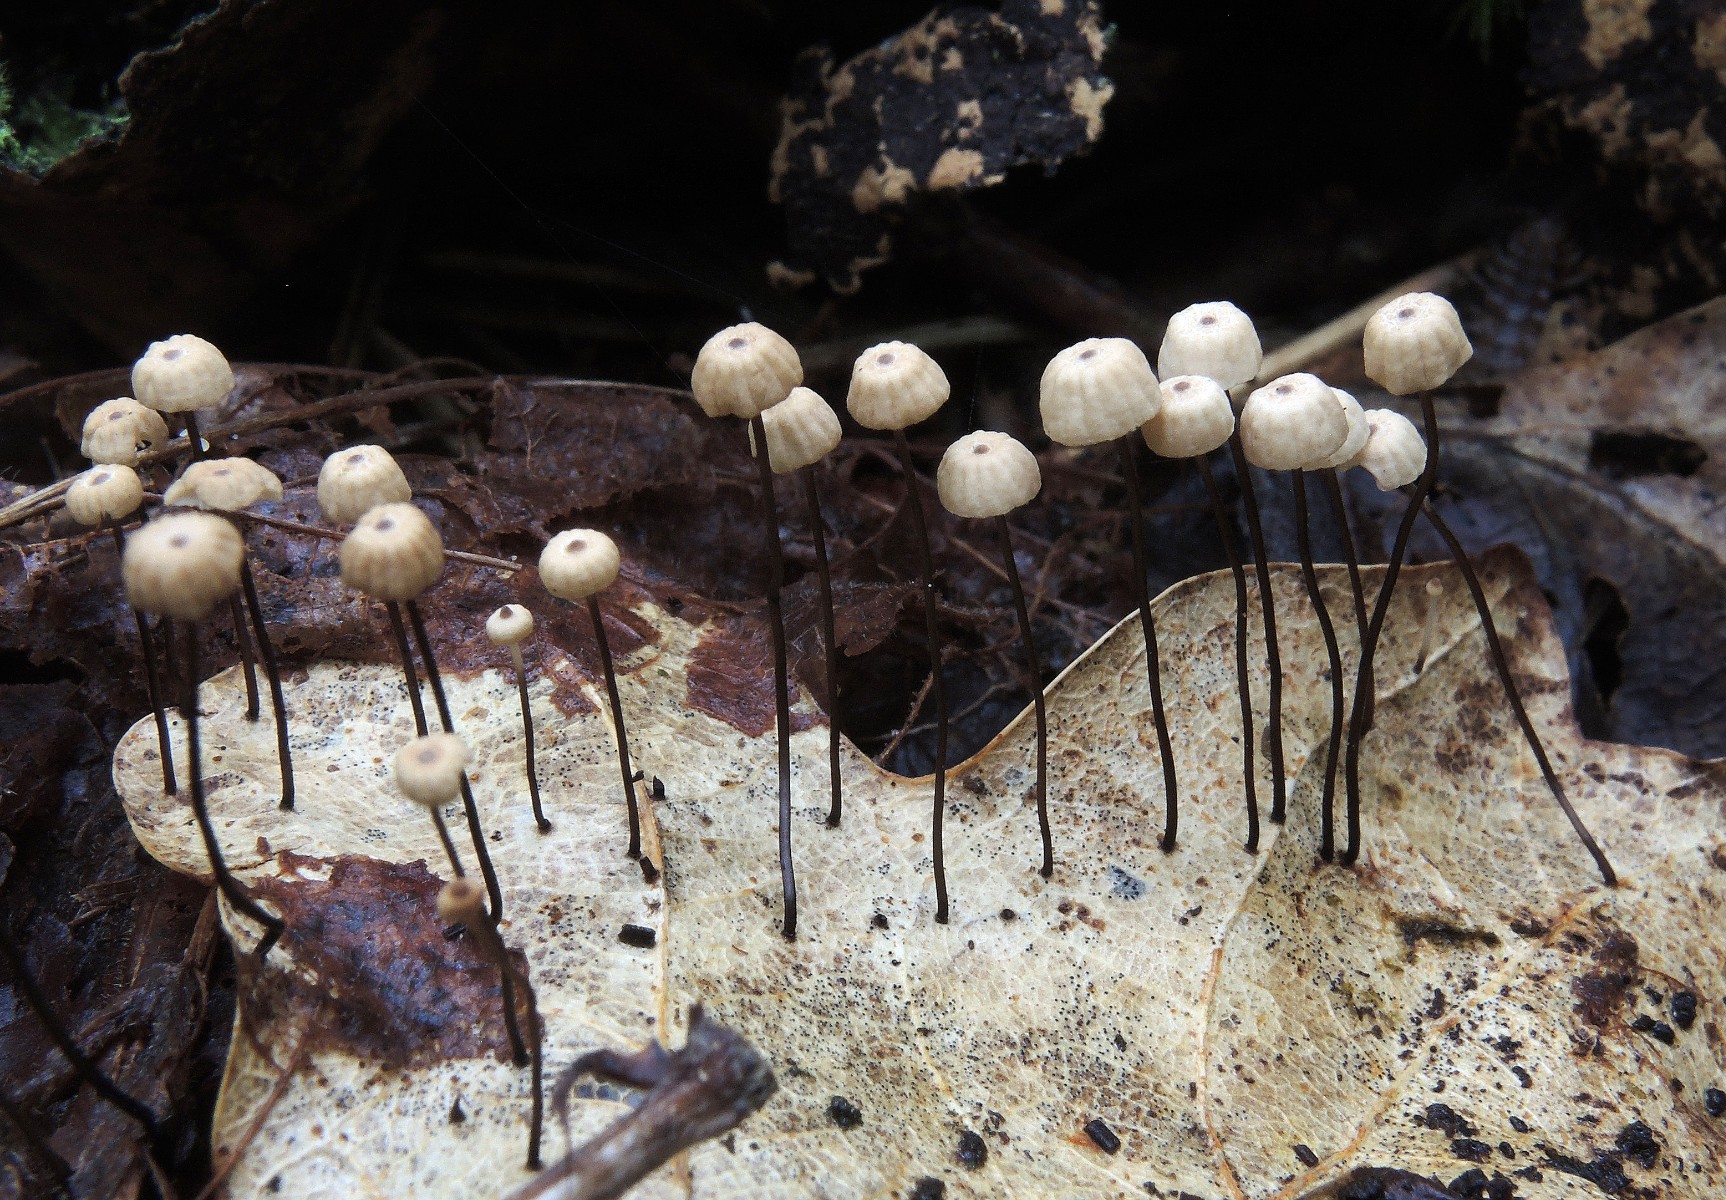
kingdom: Fungi
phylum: Basidiomycota
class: Agaricomycetes
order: Agaricales
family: Marasmiaceae
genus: Marasmius
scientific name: Marasmius bulliardii
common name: furet bruskhat
